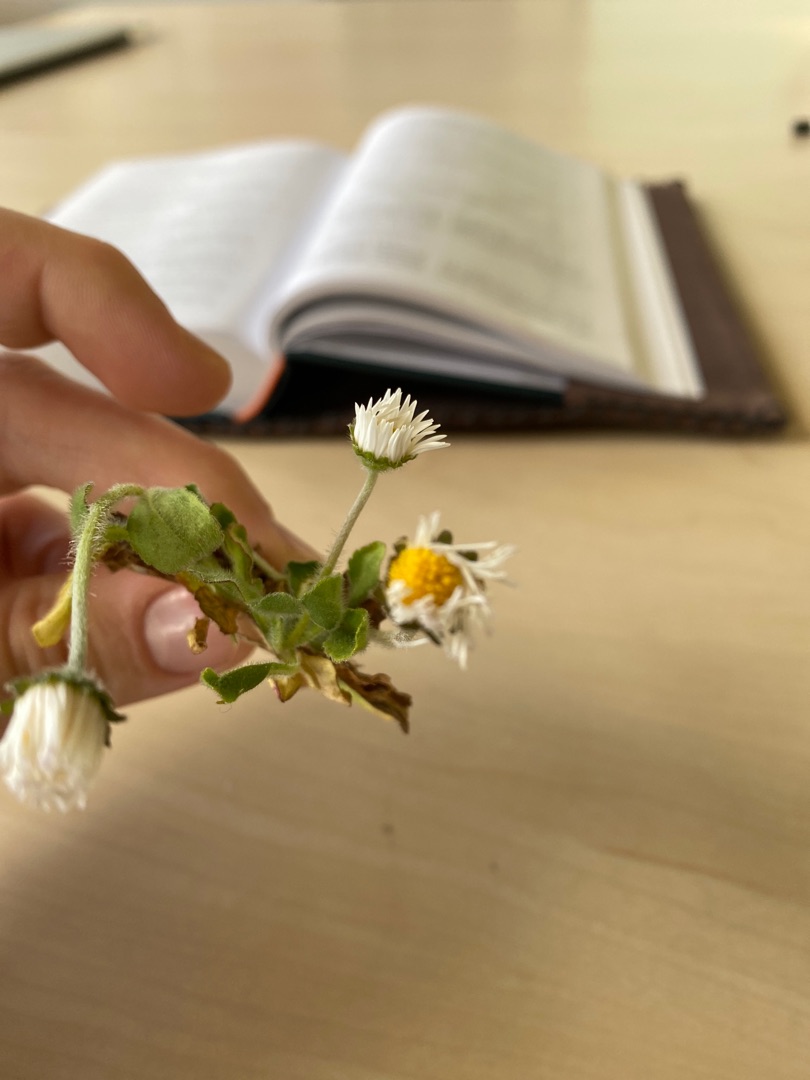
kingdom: Plantae
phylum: Tracheophyta
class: Magnoliopsida
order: Asterales
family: Asteraceae
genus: Bellis
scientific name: Bellis perennis
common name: Tusindfryd
